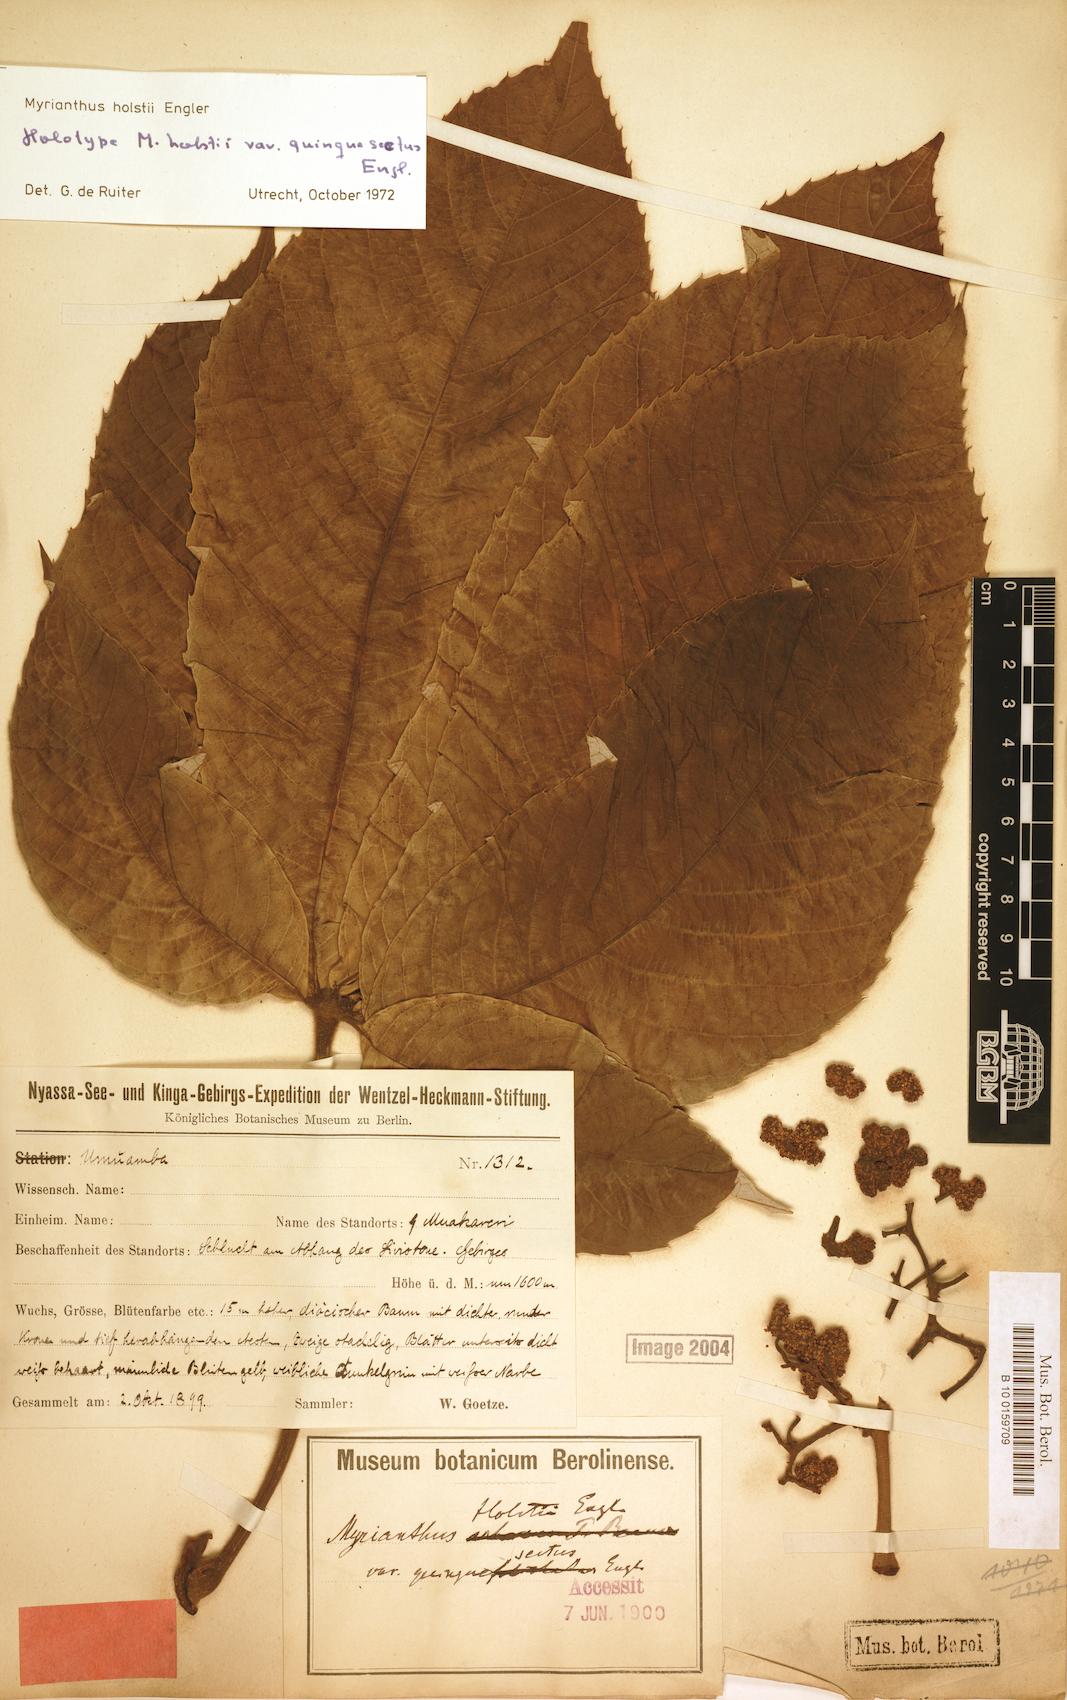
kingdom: Plantae
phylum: Tracheophyta
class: Magnoliopsida
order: Rosales
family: Urticaceae
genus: Myrianthus
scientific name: Myrianthus holstii
